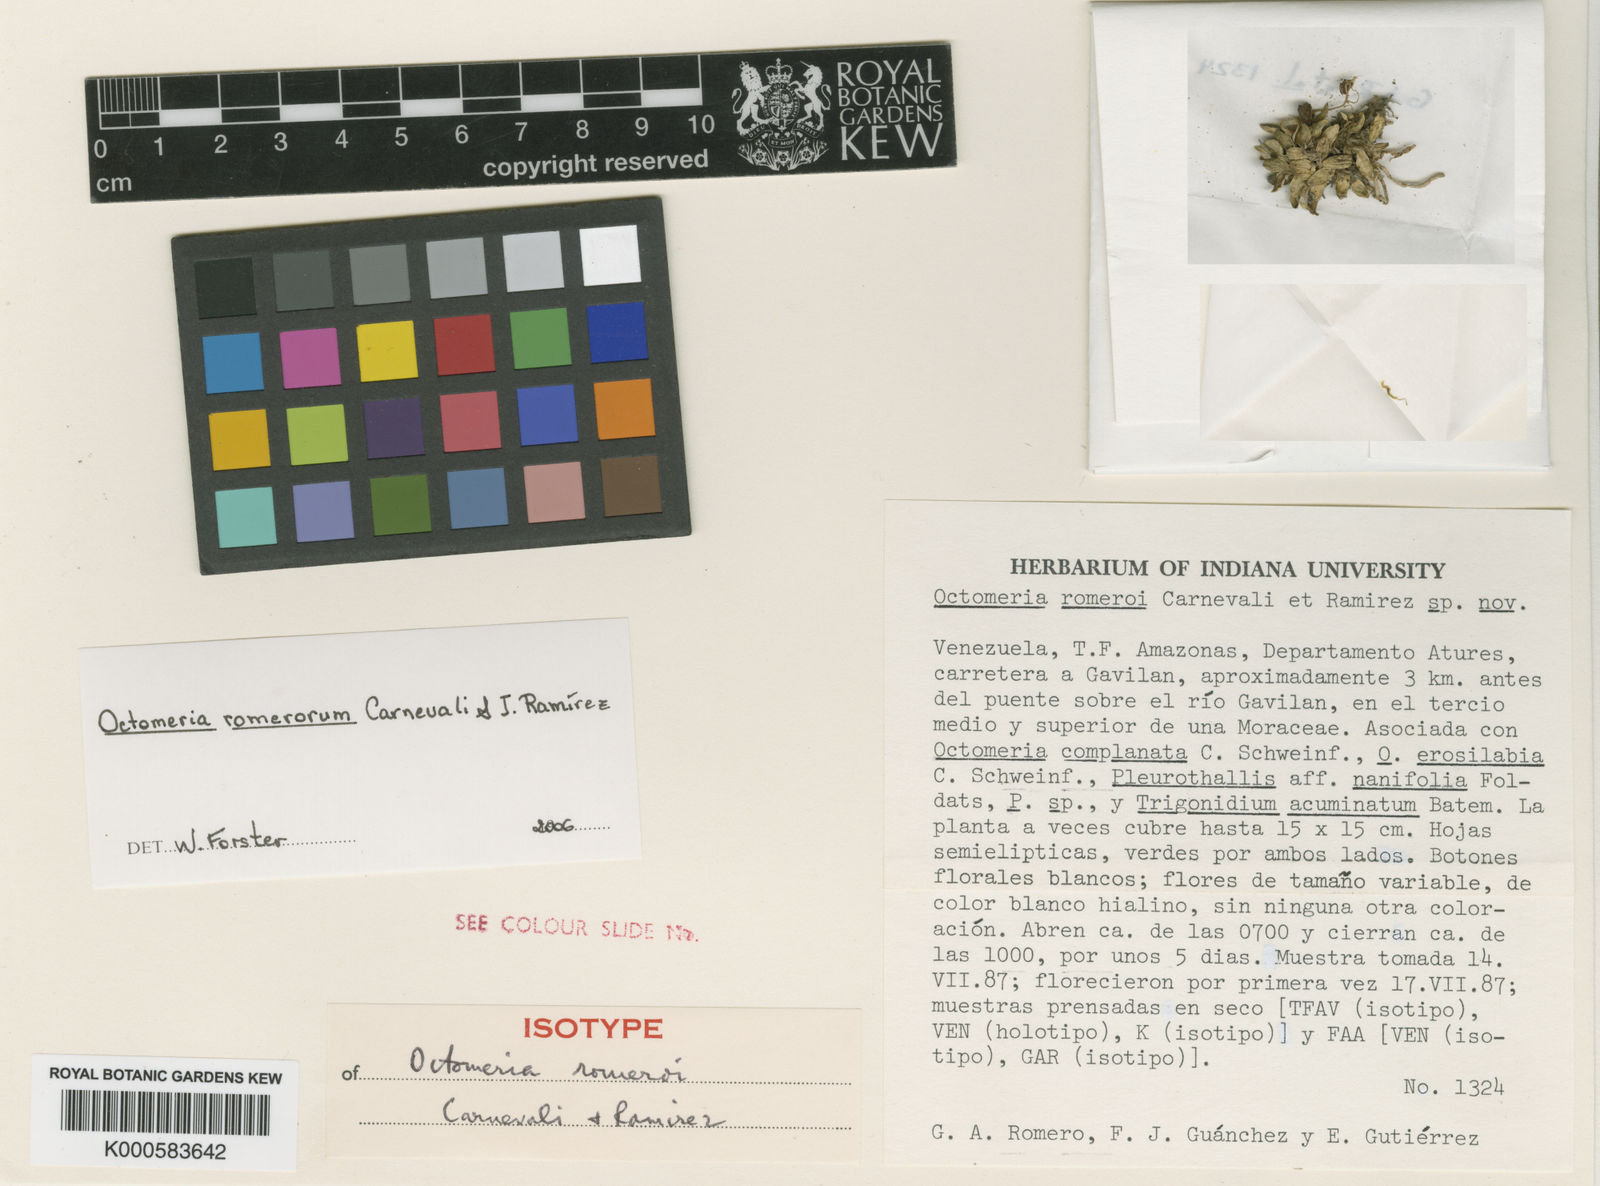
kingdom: Plantae
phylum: Tracheophyta
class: Liliopsida
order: Asparagales
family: Orchidaceae
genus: Octomeria
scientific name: Octomeria
